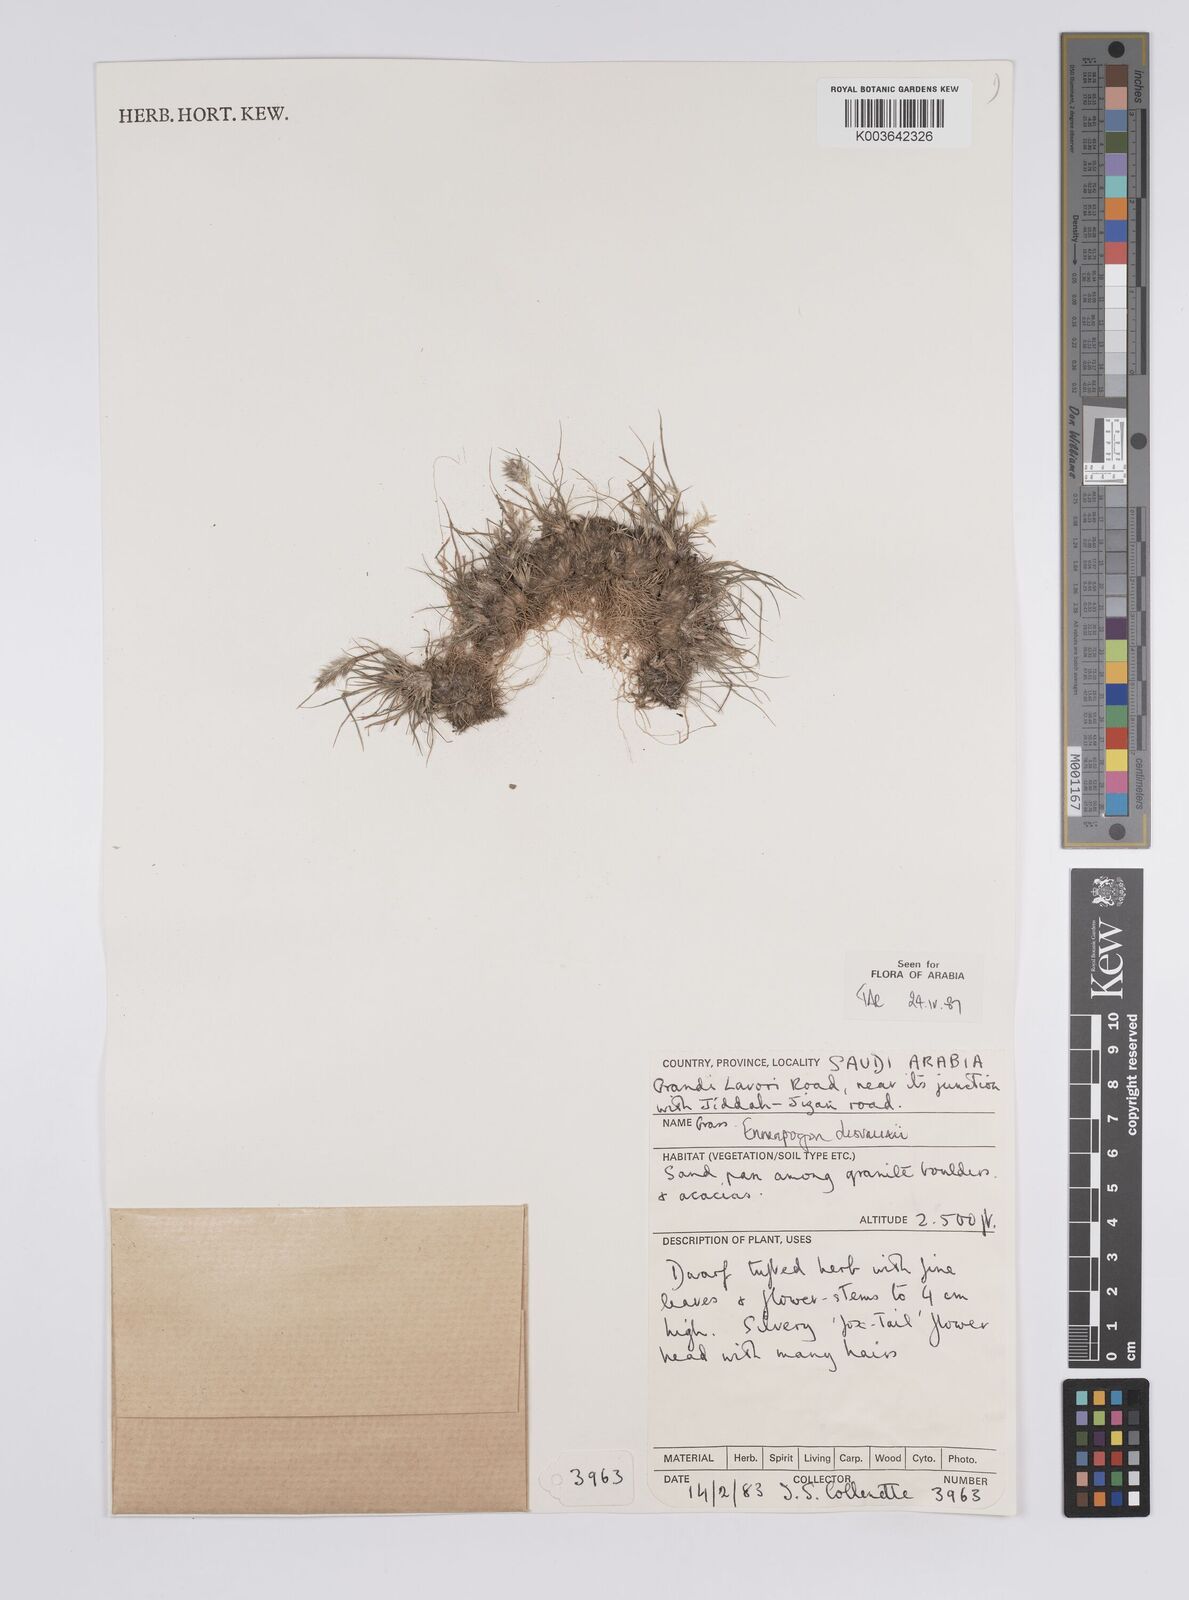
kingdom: Plantae
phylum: Tracheophyta
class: Liliopsida
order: Poales
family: Poaceae
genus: Enneapogon
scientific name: Enneapogon desvauxii
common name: Feather pappus grass
